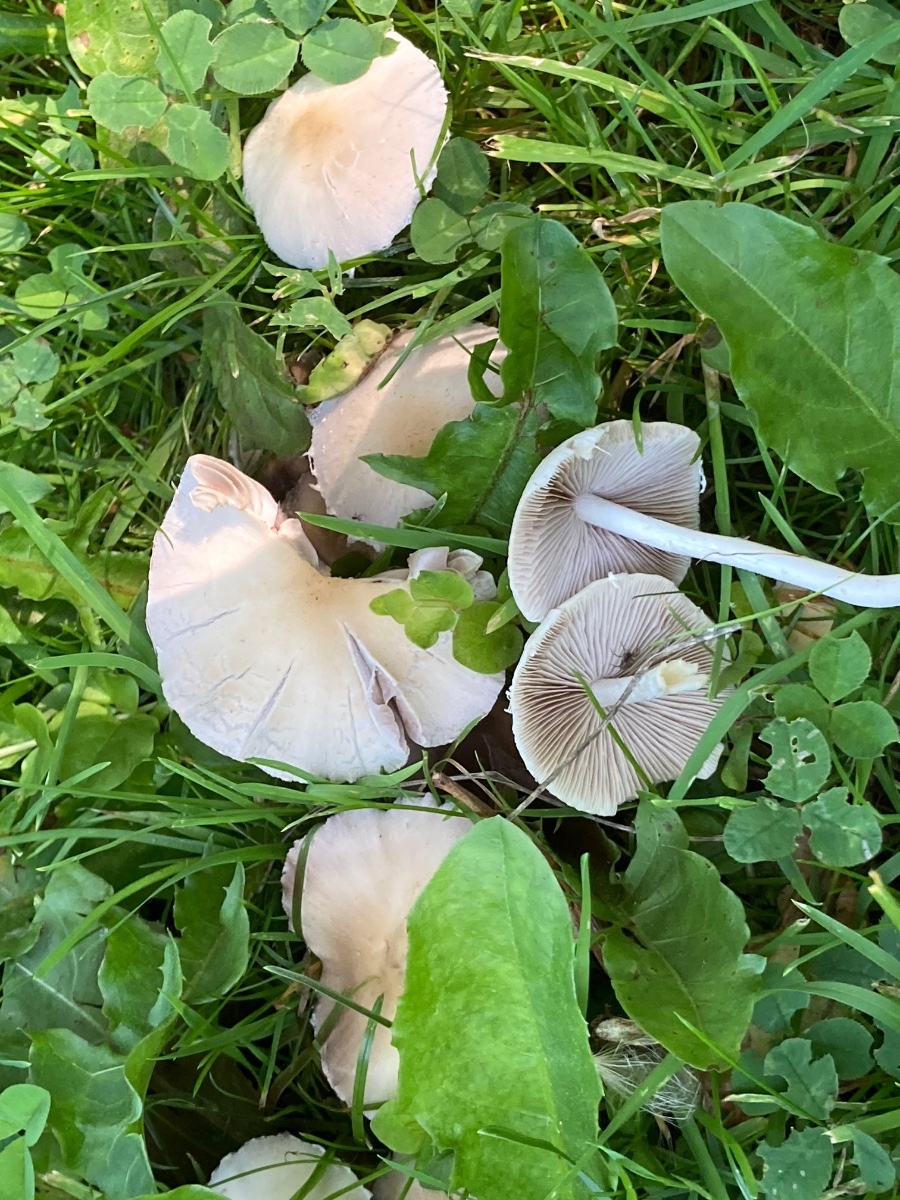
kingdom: Fungi
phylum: Basidiomycota
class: Agaricomycetes
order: Agaricales
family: Psathyrellaceae
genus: Candolleomyces
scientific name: Candolleomyces candolleanus
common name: Candolles mørkhat
